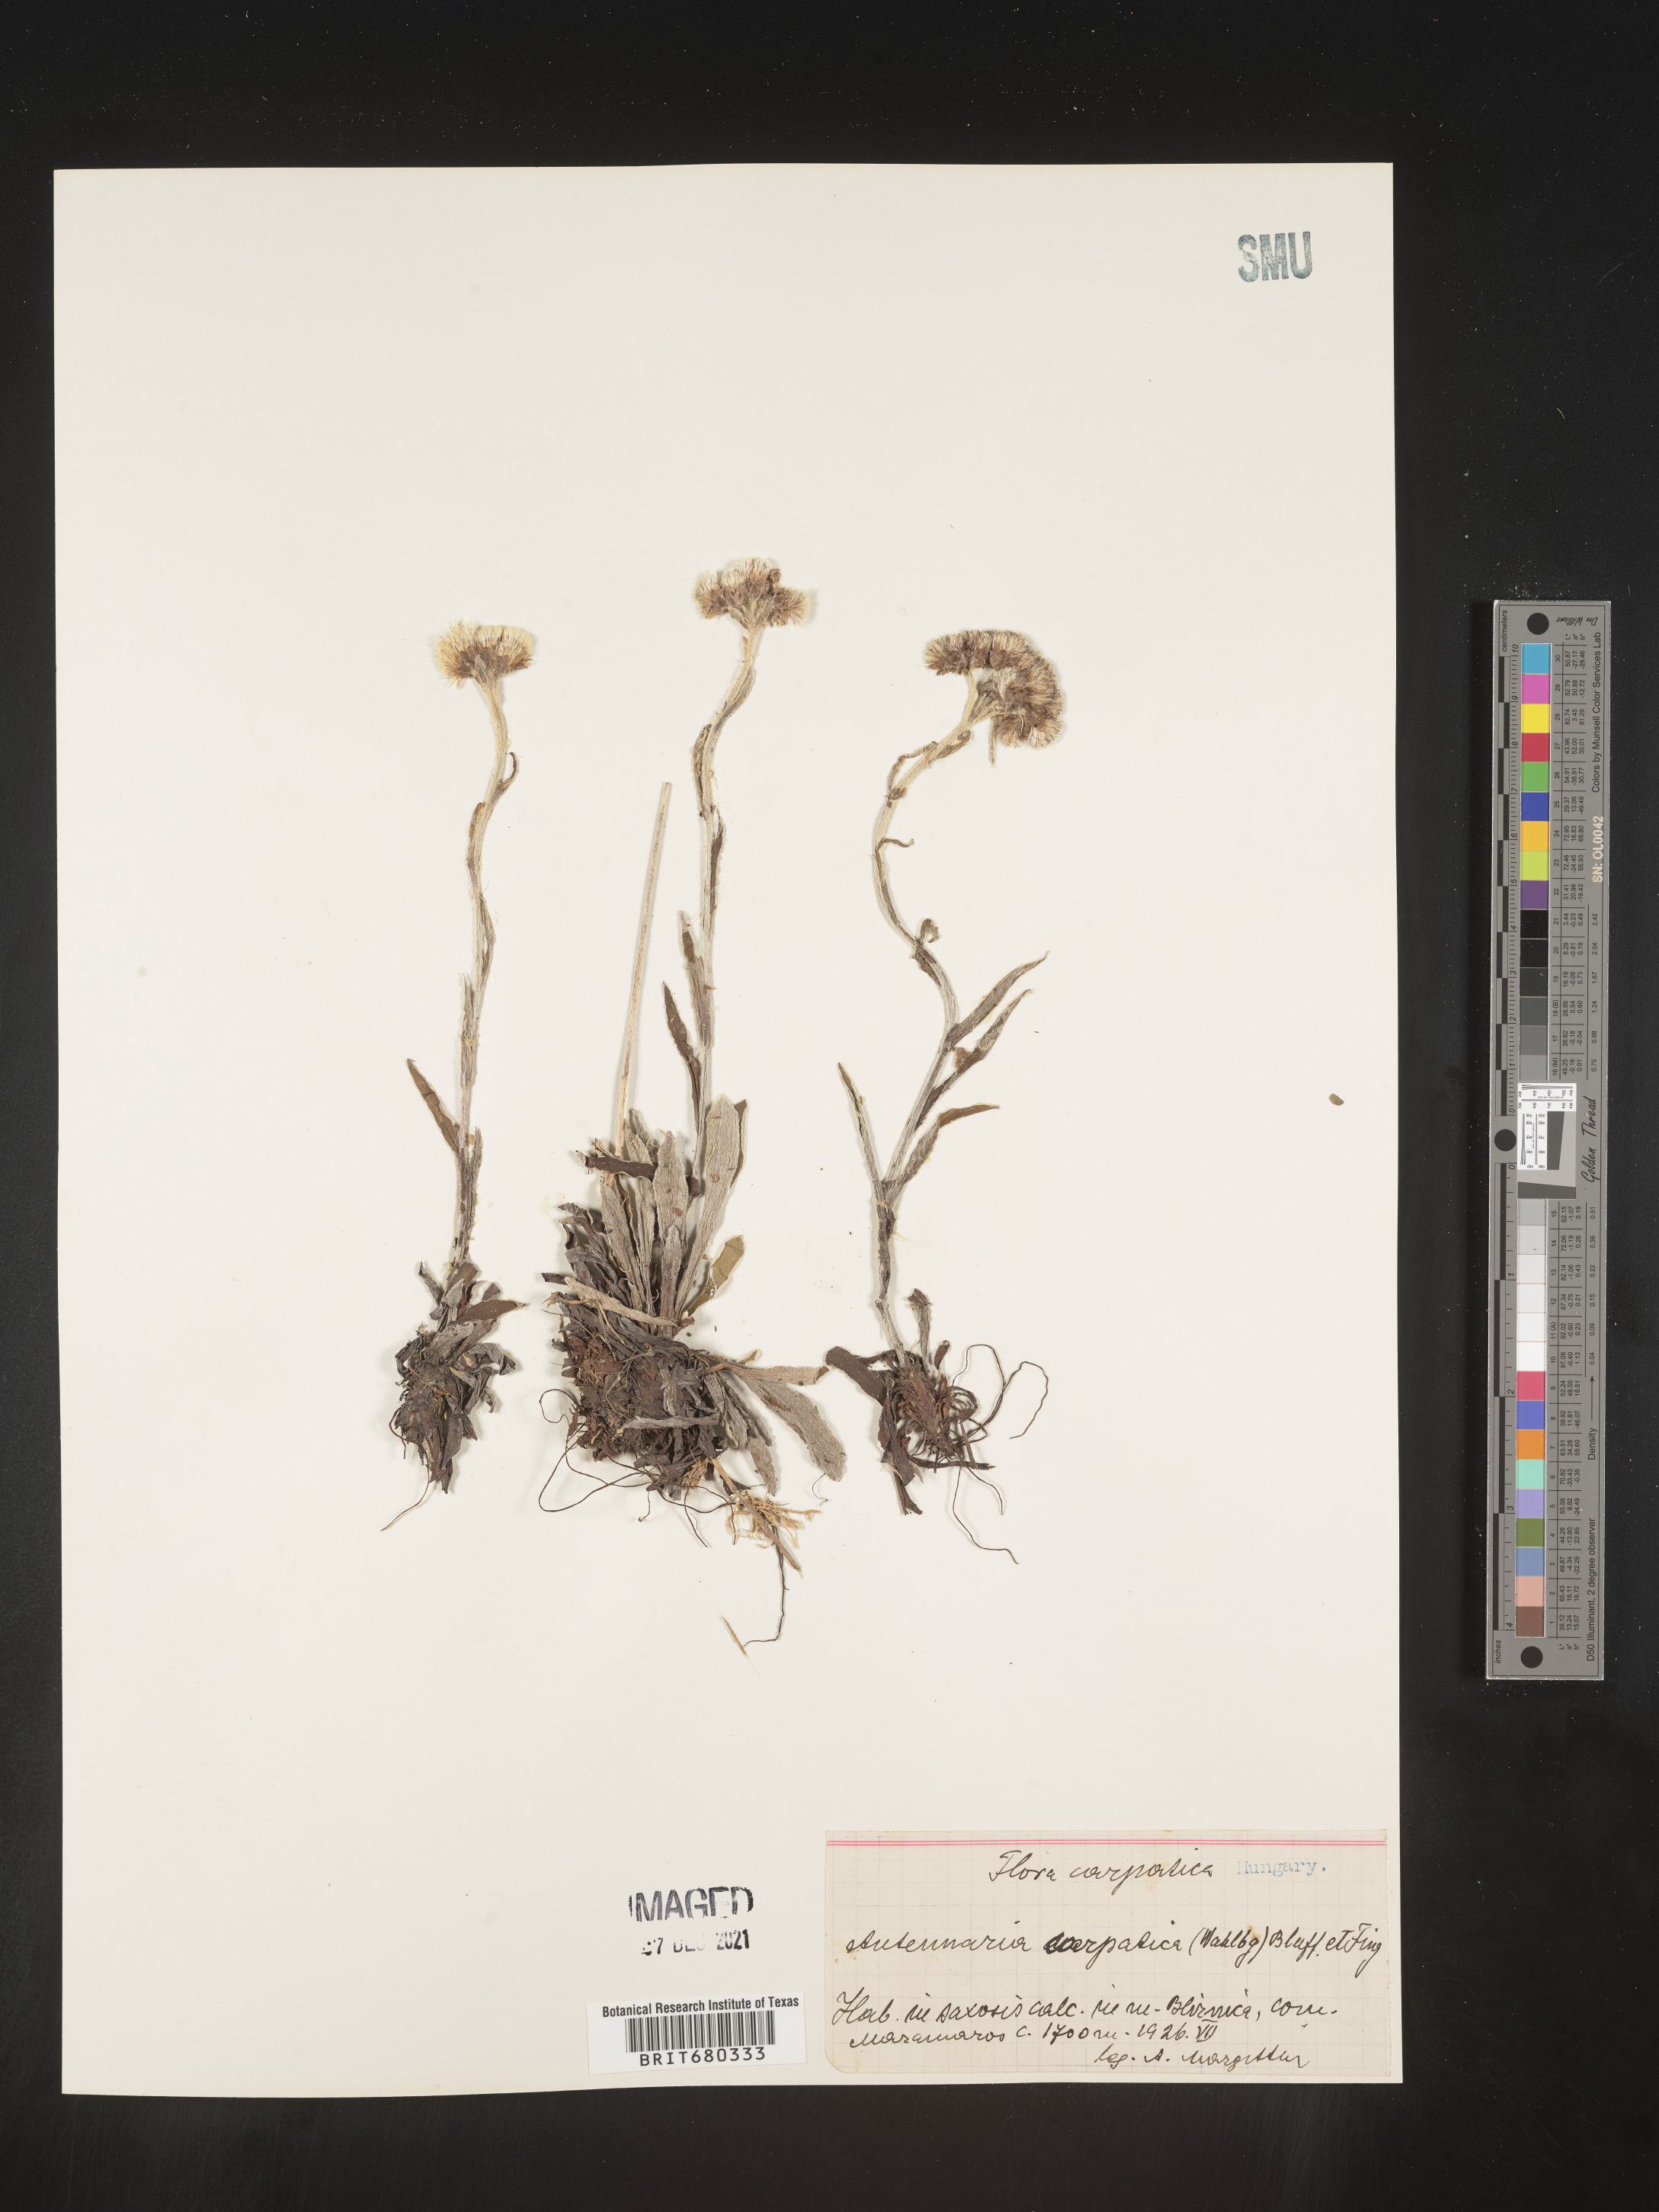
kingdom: Plantae
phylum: Tracheophyta
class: Magnoliopsida
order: Asterales
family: Asteraceae
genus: Antennaria
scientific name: Antennaria
